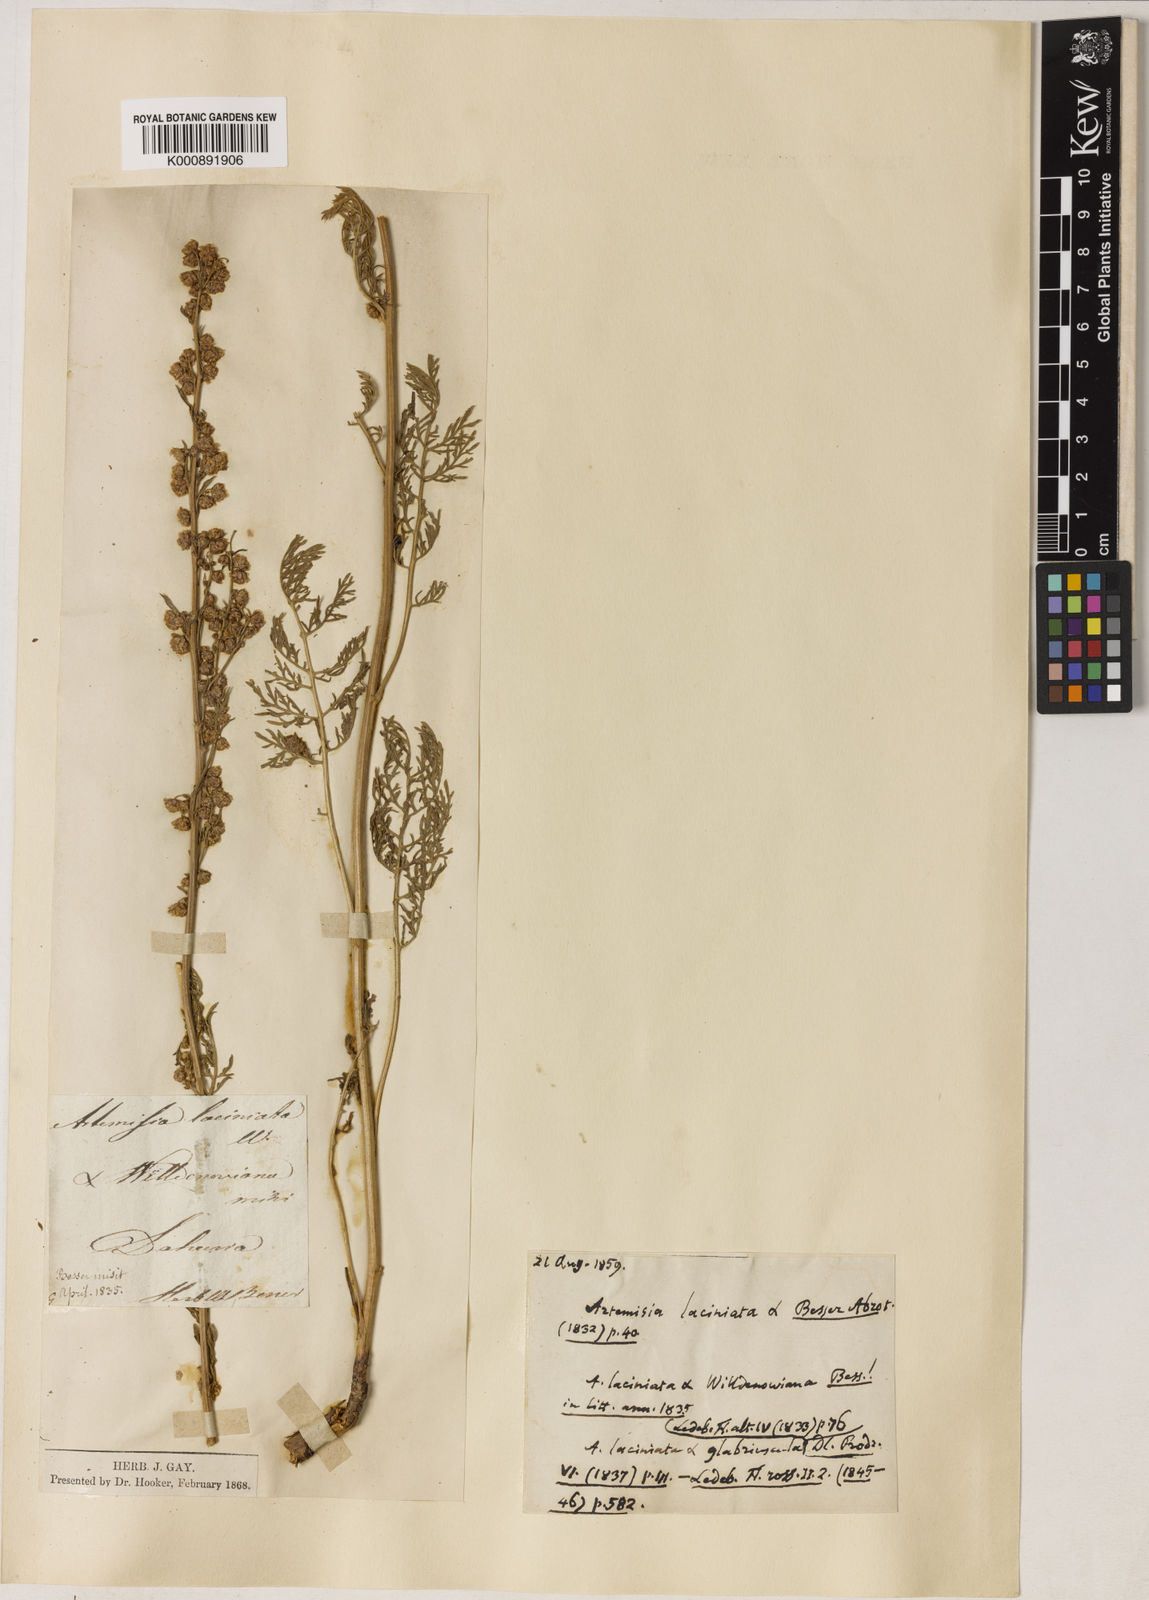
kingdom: Plantae
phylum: Tracheophyta
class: Magnoliopsida
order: Asterales
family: Asteraceae
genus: Artemisia
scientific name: Artemisia tanacetifolia
